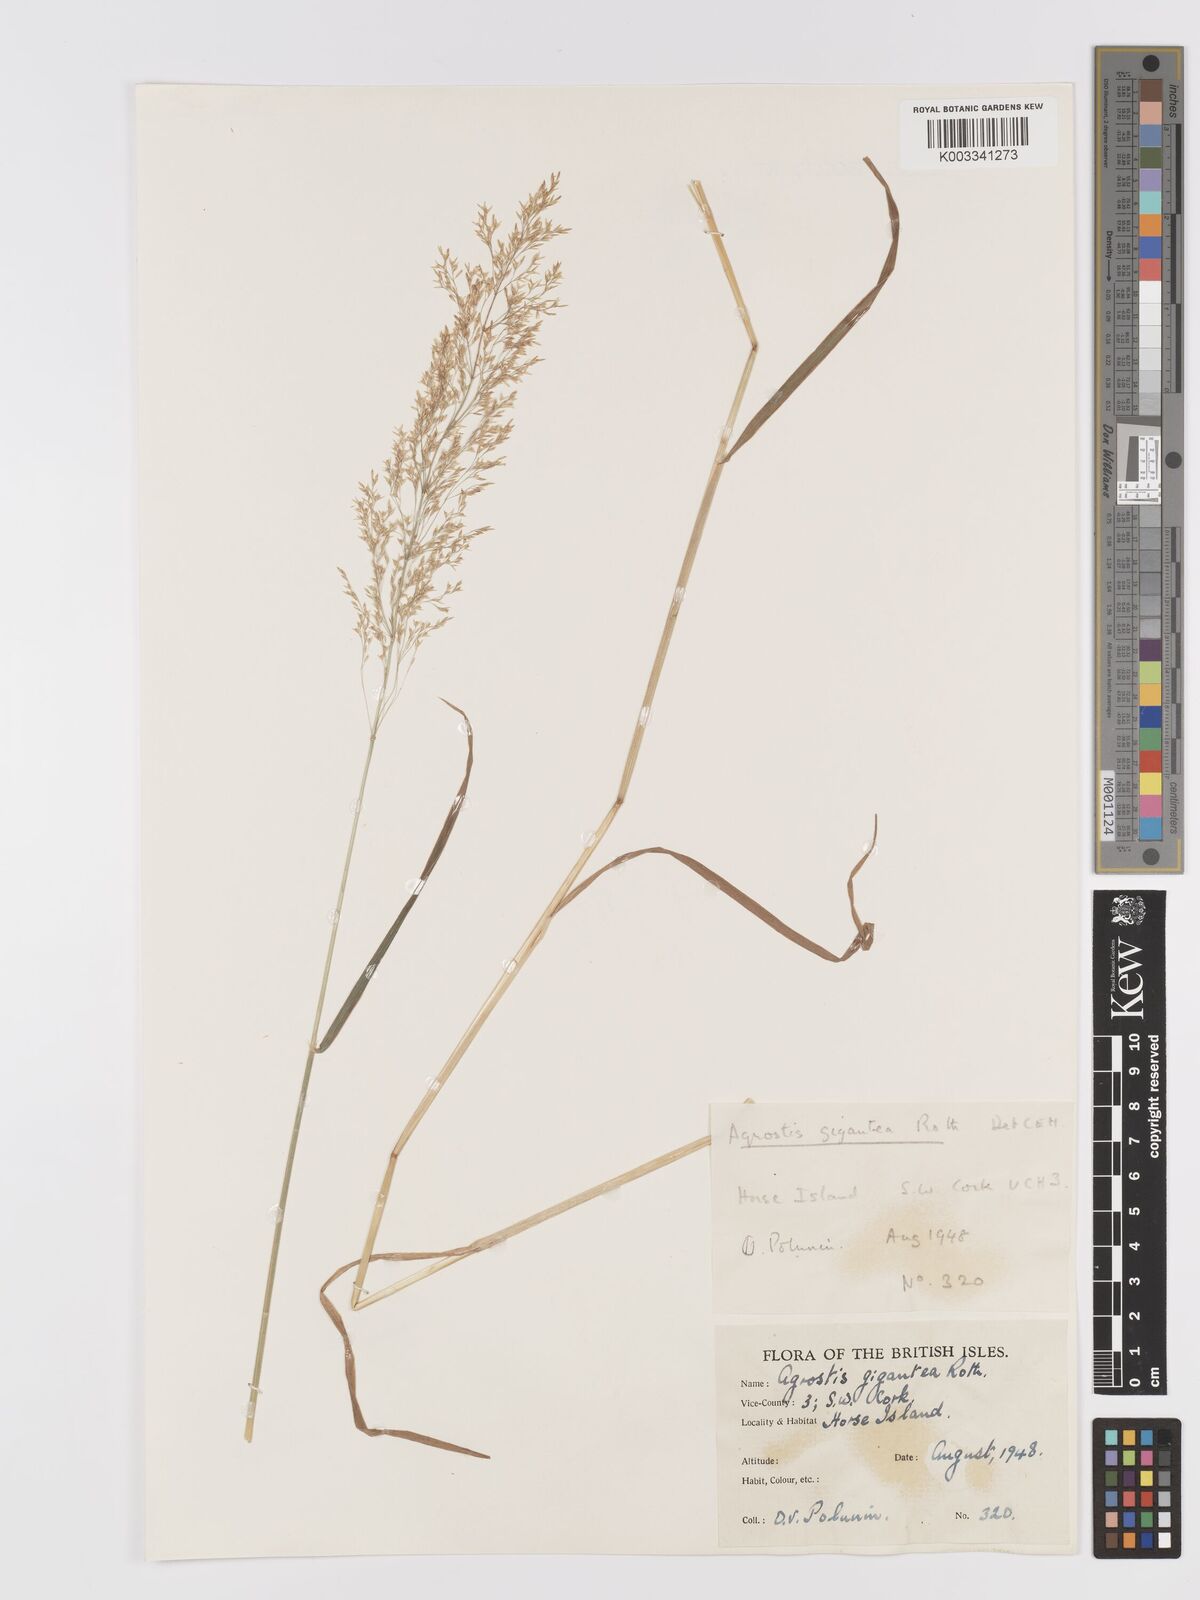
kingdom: Plantae
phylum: Tracheophyta
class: Liliopsida
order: Poales
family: Poaceae
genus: Agrostis
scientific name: Agrostis gigantea
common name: Black bent
